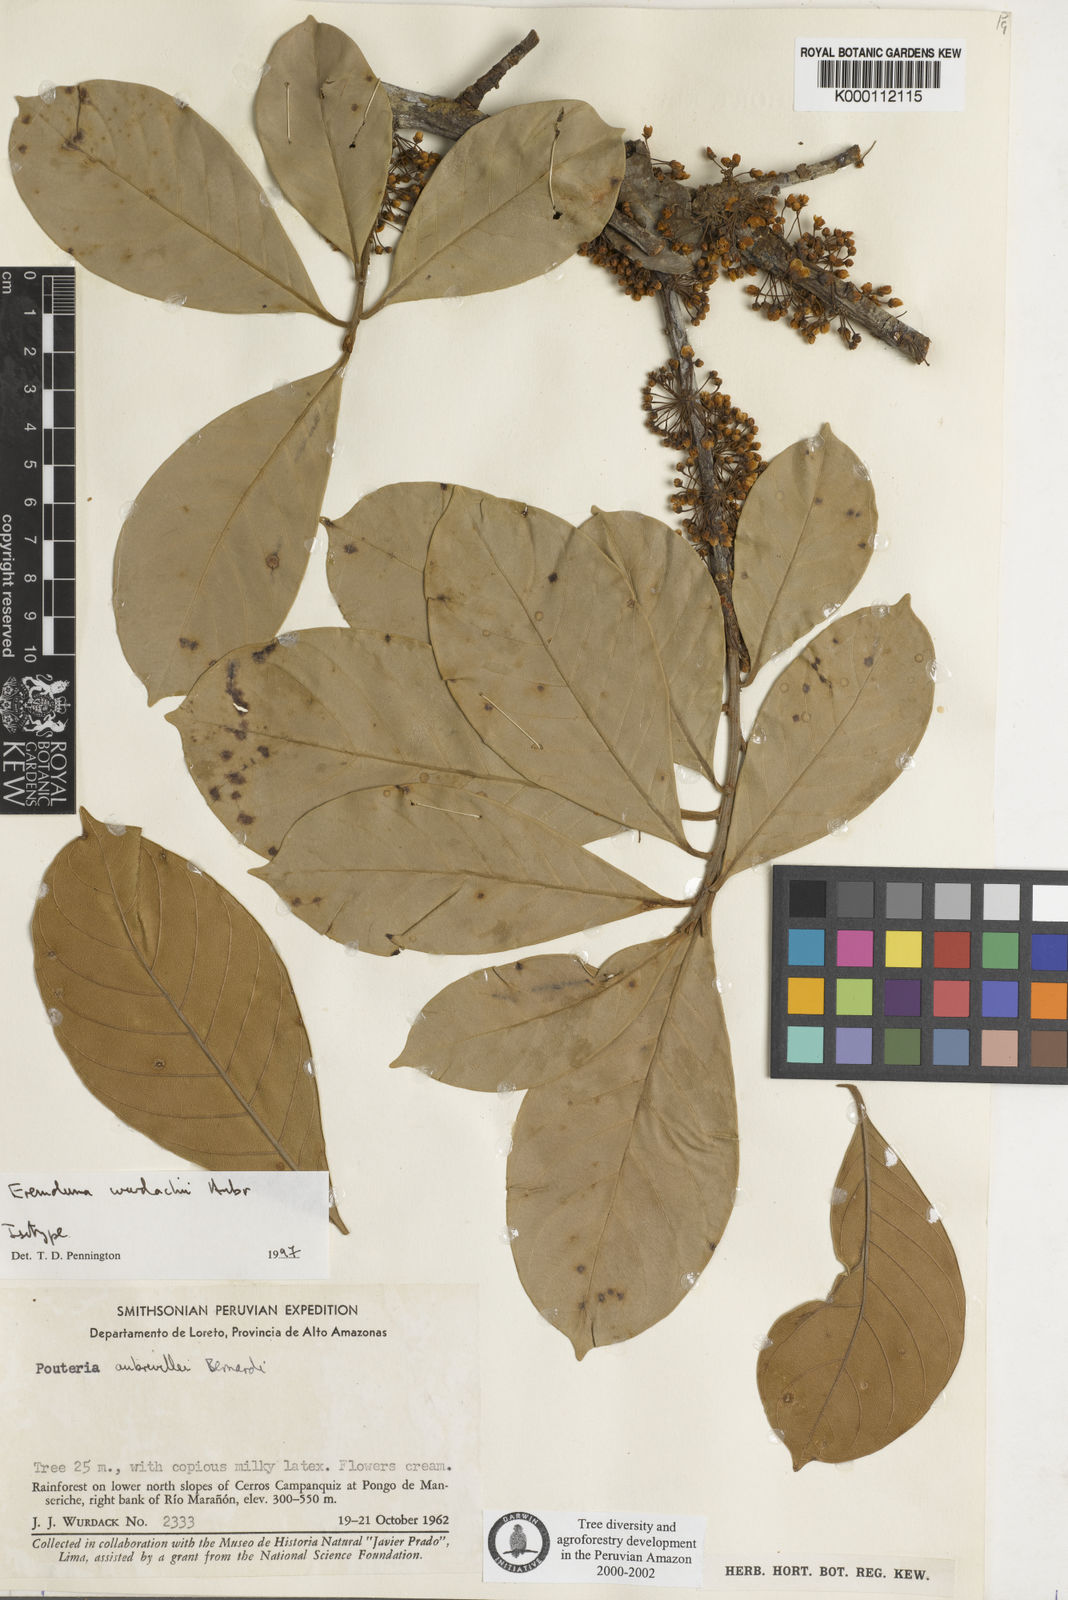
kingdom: Plantae
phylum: Tracheophyta
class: Magnoliopsida
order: Ericales
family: Sapotaceae
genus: Pouteria
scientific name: Pouteria aubrevillei
